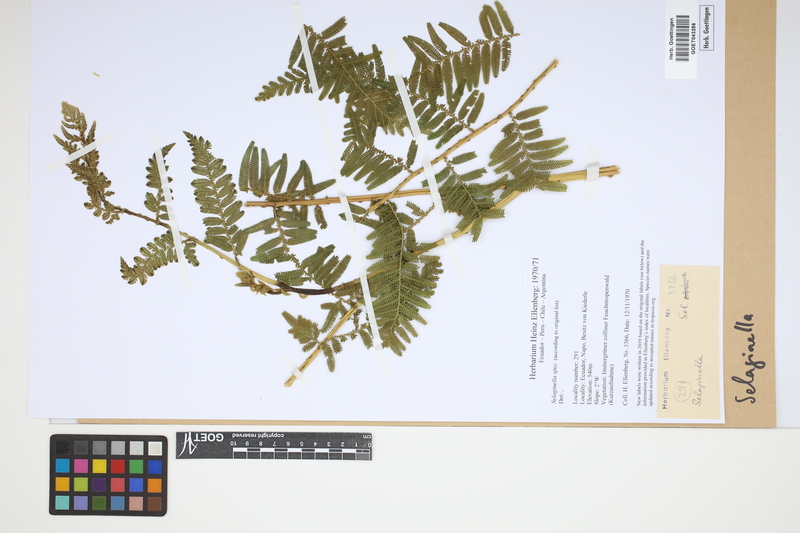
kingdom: Plantae
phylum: Tracheophyta
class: Lycopodiopsida
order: Selaginellales
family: Selaginellaceae
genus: Selaginella
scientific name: Selaginella
